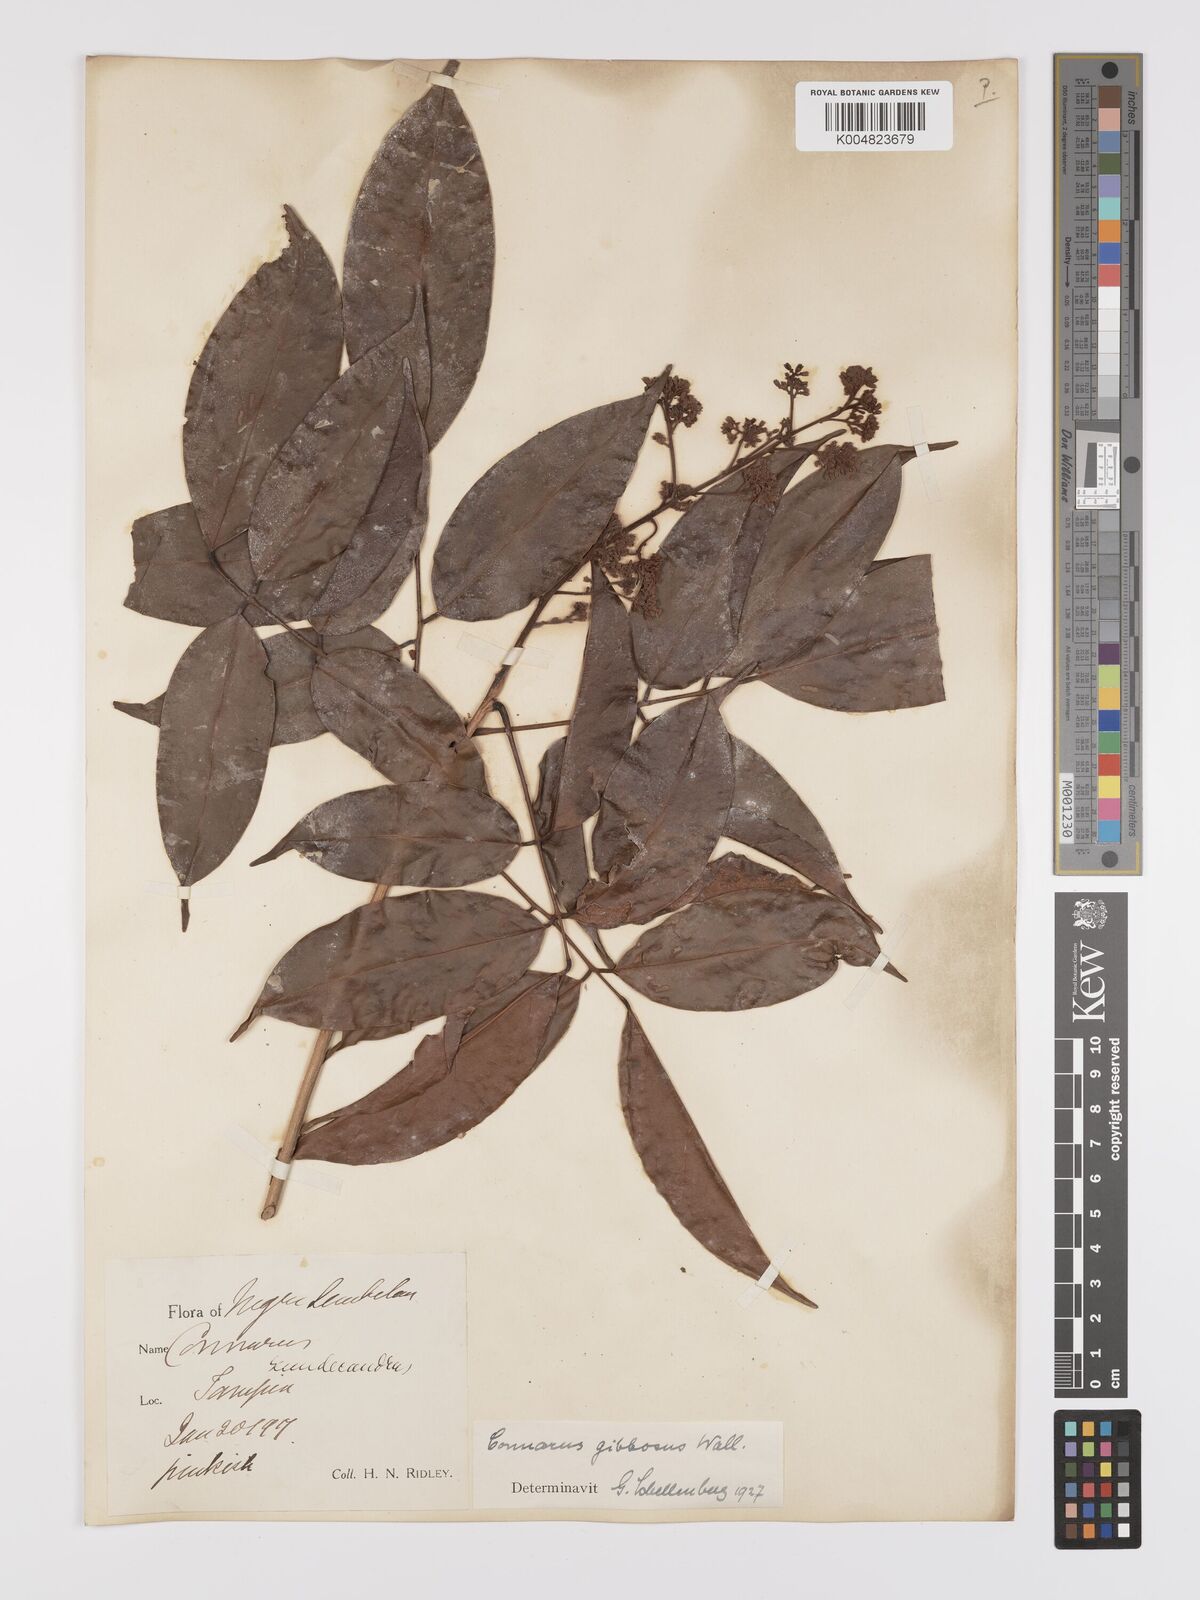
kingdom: Plantae
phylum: Tracheophyta
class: Magnoliopsida
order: Oxalidales
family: Connaraceae
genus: Connarus
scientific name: Connarus semidecandrus
